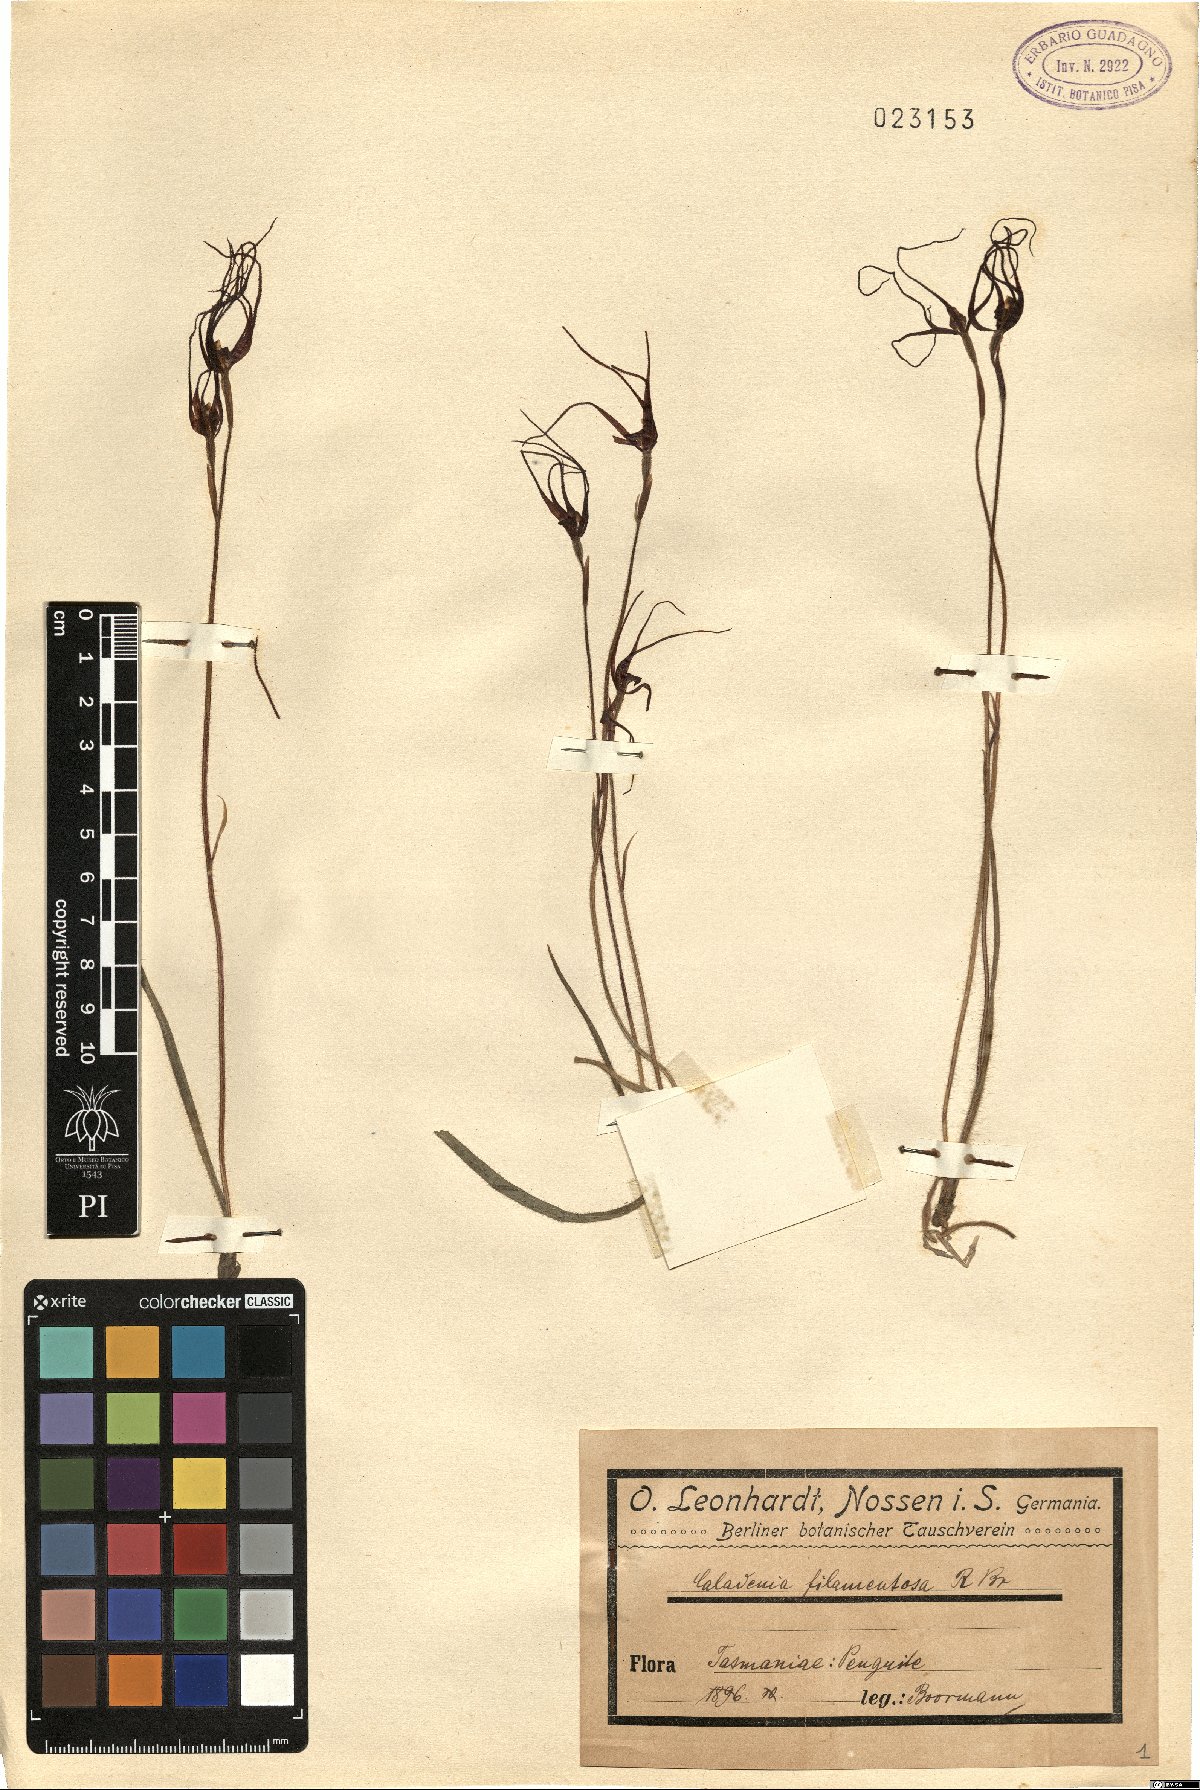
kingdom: Plantae
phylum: Tracheophyta
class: Liliopsida
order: Asparagales
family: Orchidaceae
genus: Caladenia
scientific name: Caladenia filamentosa
